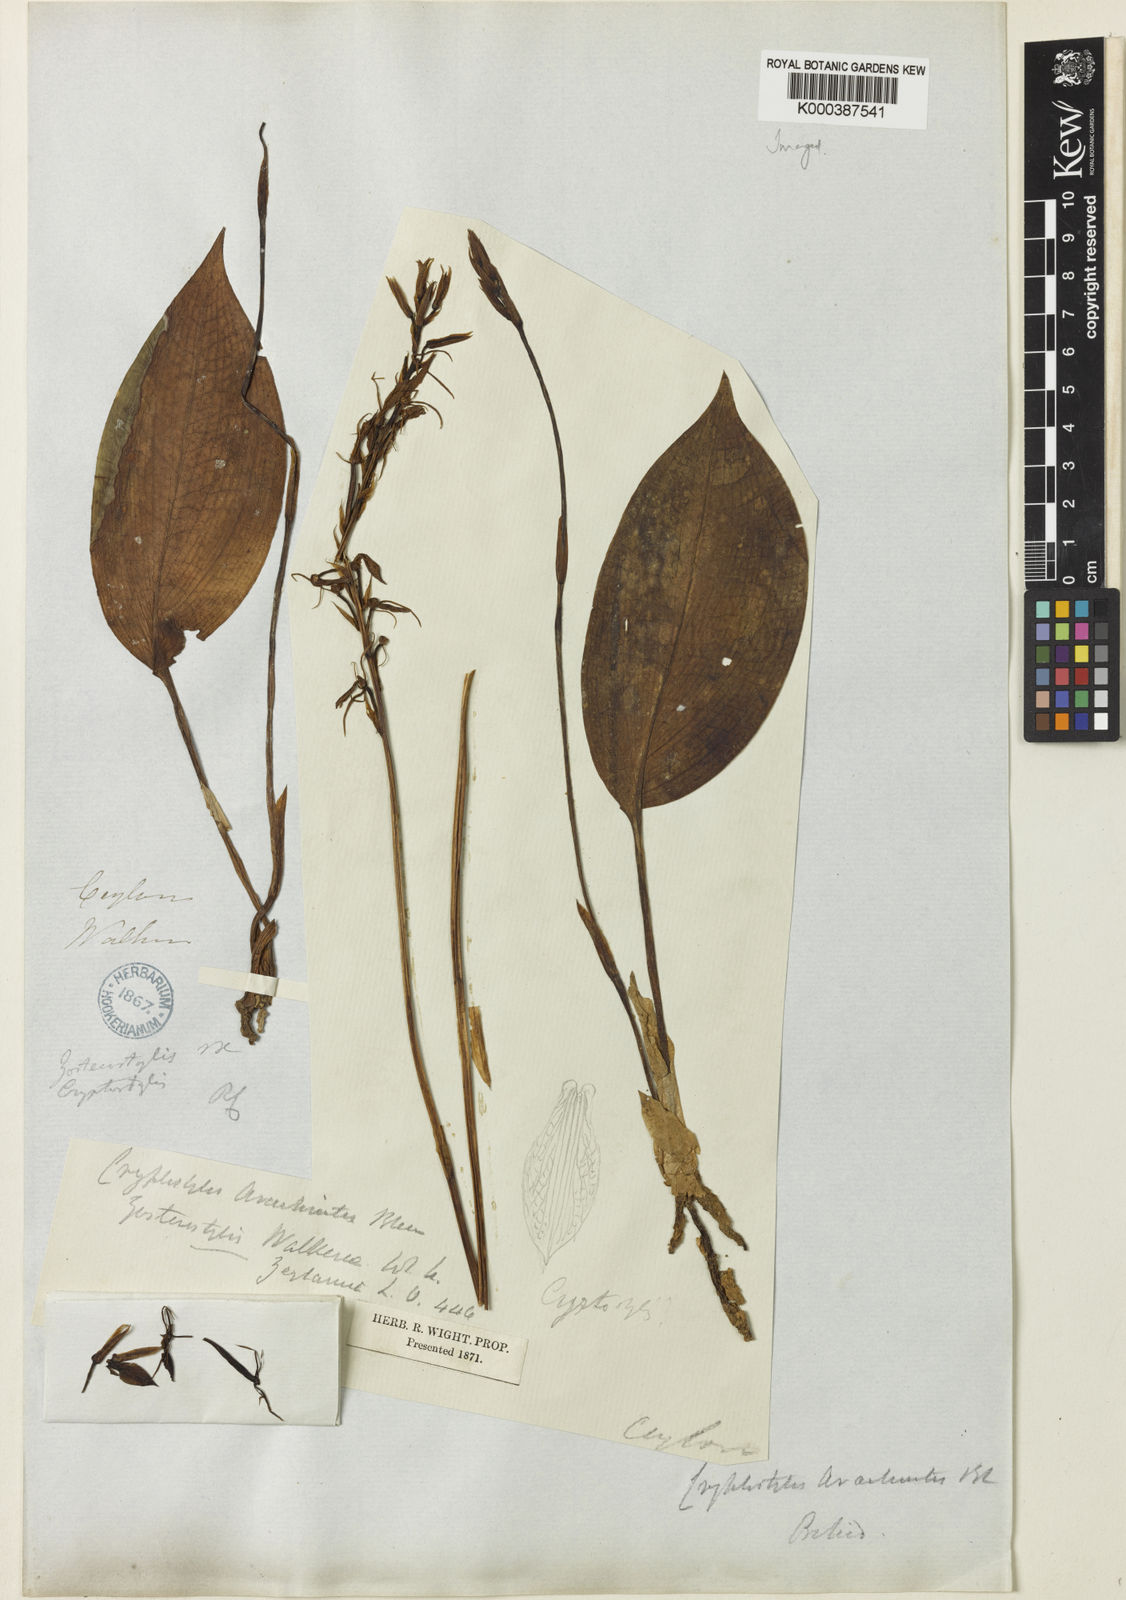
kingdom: Plantae
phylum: Tracheophyta
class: Liliopsida
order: Asparagales
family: Orchidaceae
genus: Cryptostylis
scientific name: Cryptostylis arachnites
